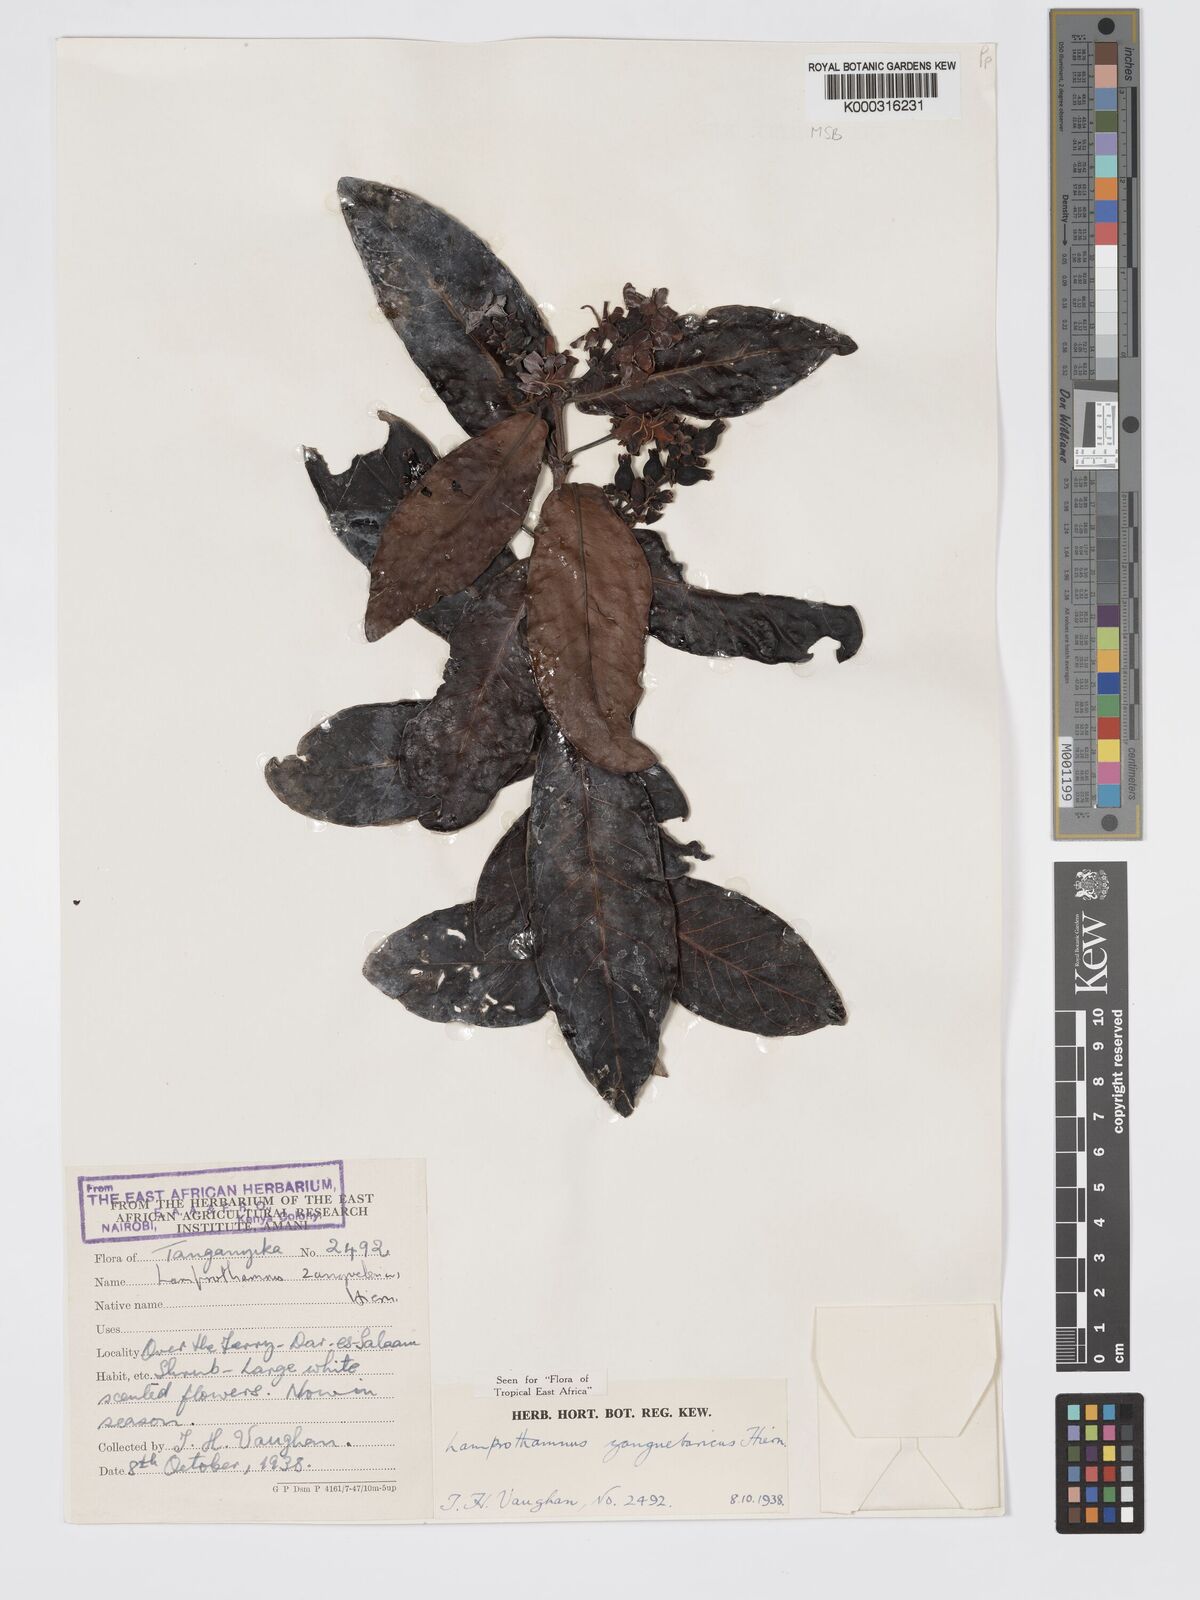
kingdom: Plantae
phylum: Tracheophyta
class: Magnoliopsida
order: Gentianales
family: Rubiaceae
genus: Lamprothamnus
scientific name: Lamprothamnus zanguebaricus
